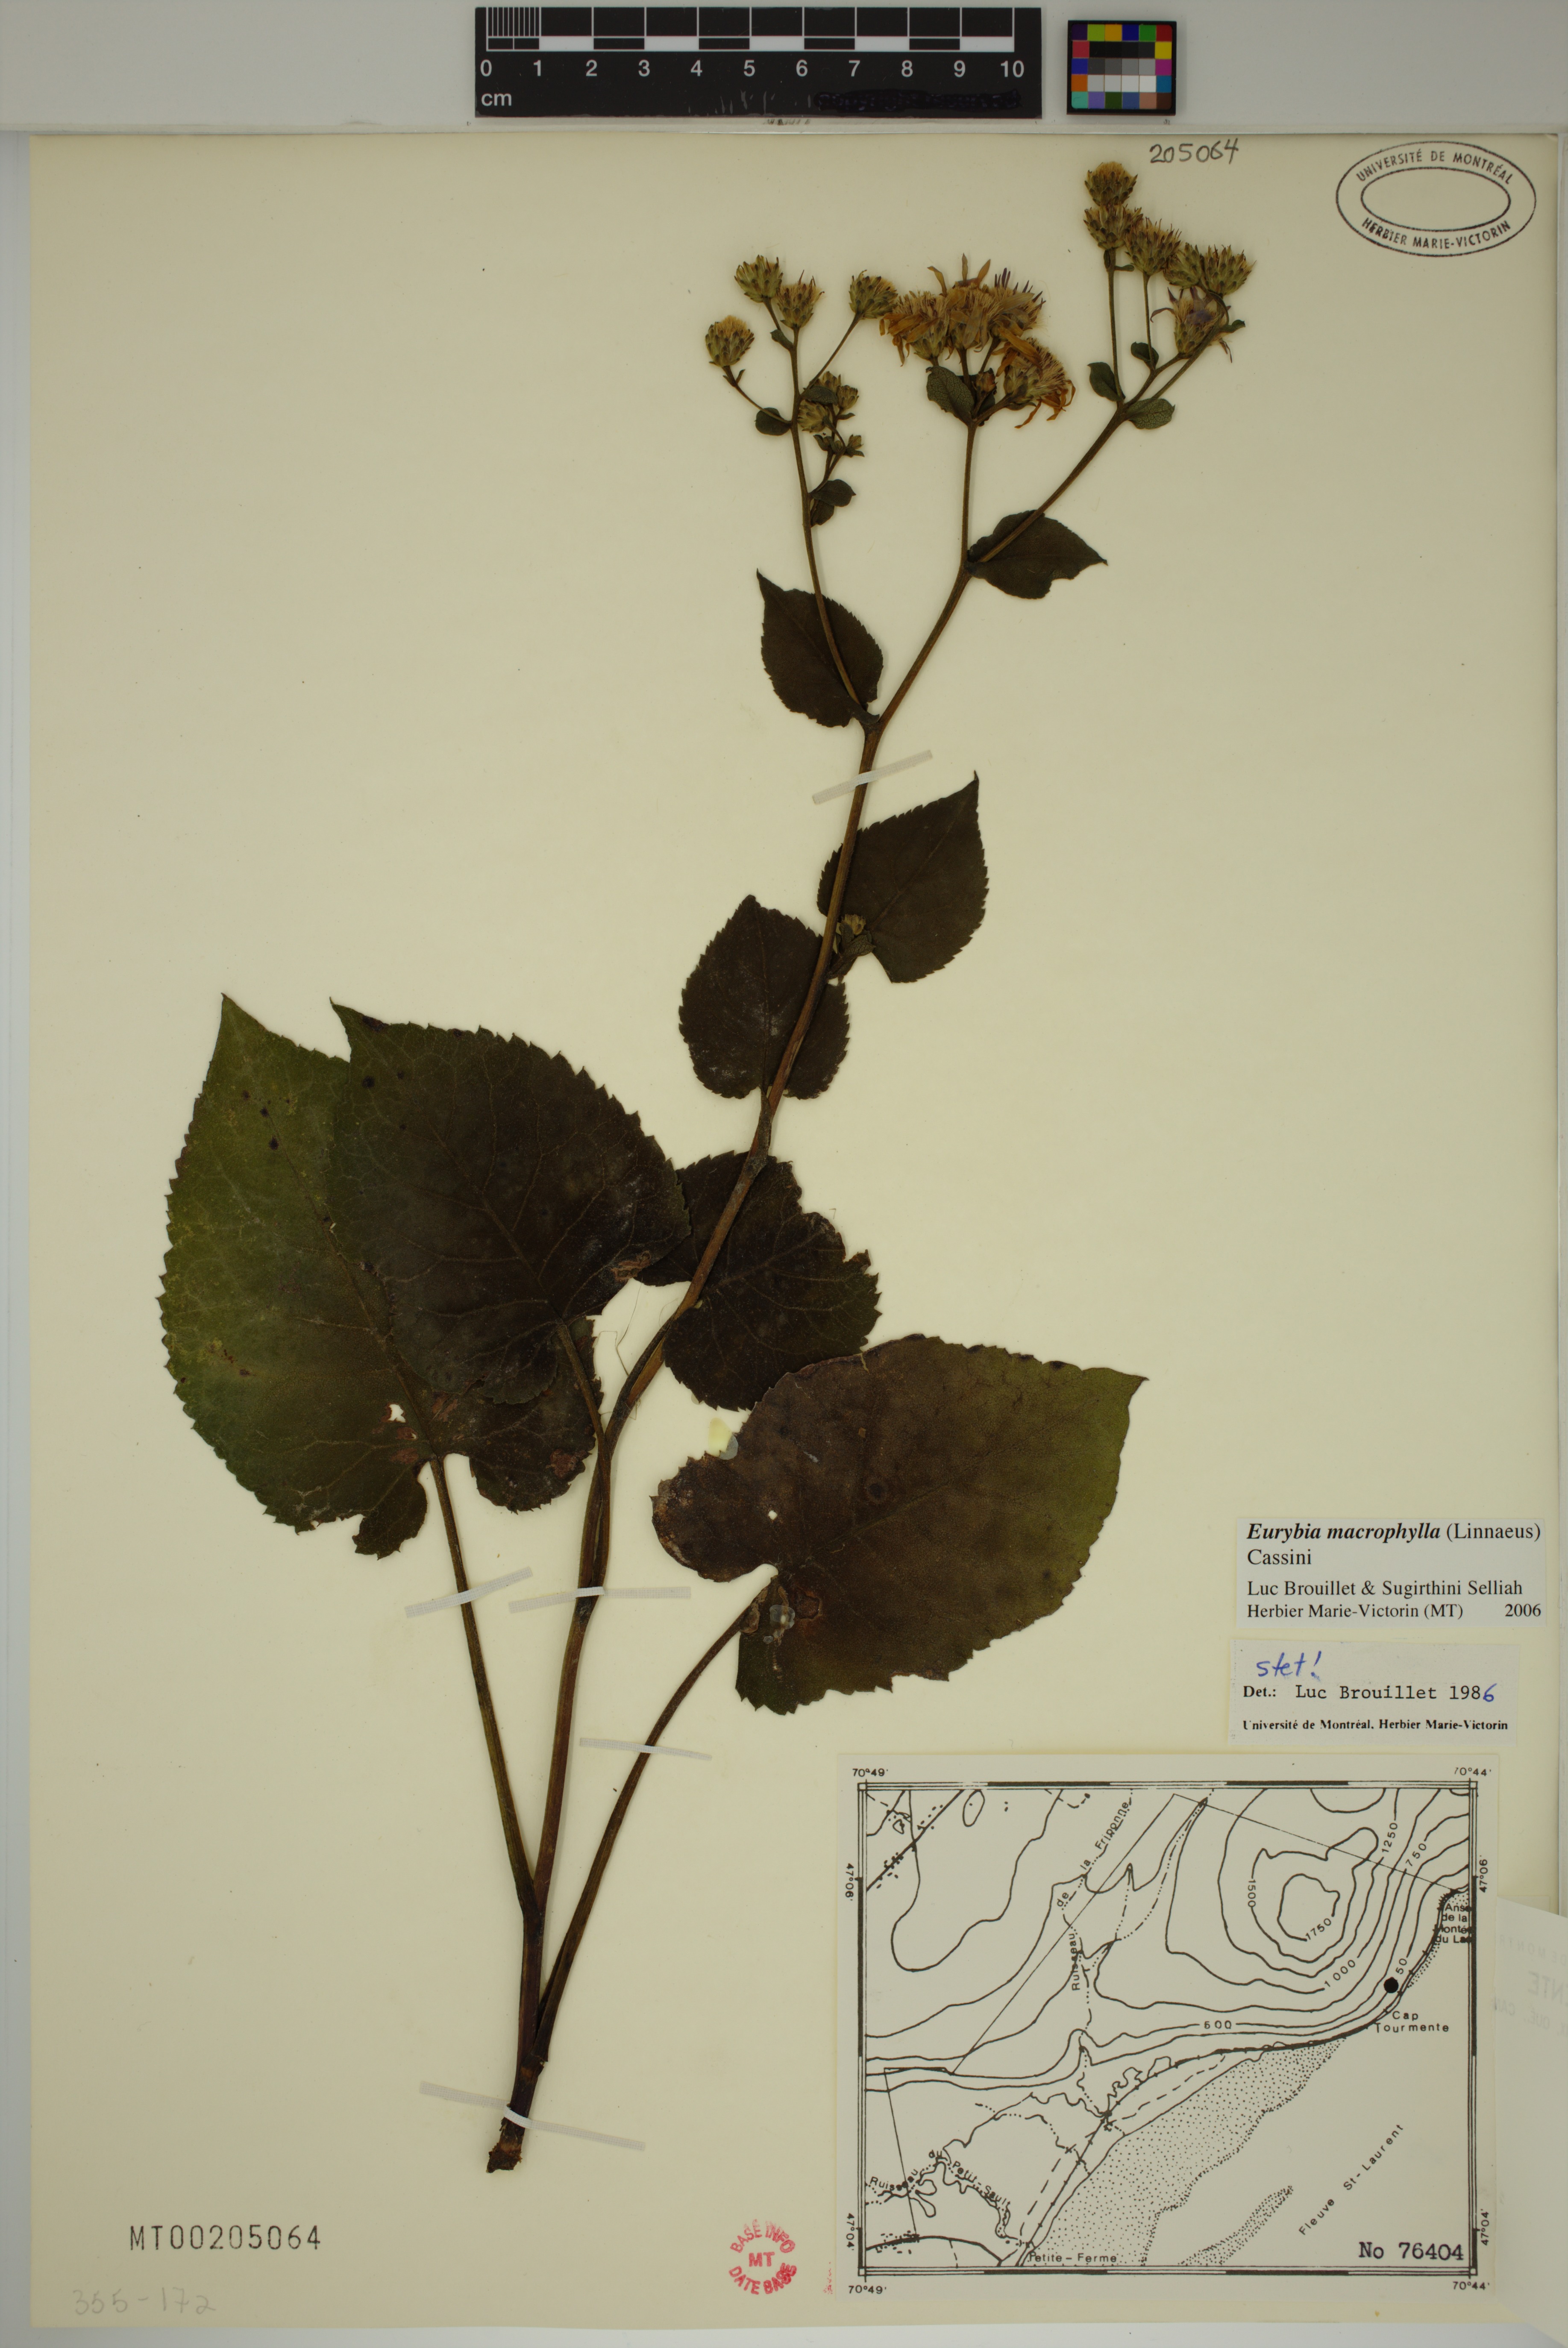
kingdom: Plantae
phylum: Tracheophyta
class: Magnoliopsida
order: Asterales
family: Asteraceae
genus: Eurybia
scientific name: Eurybia macrophylla
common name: Big-leaved aster
